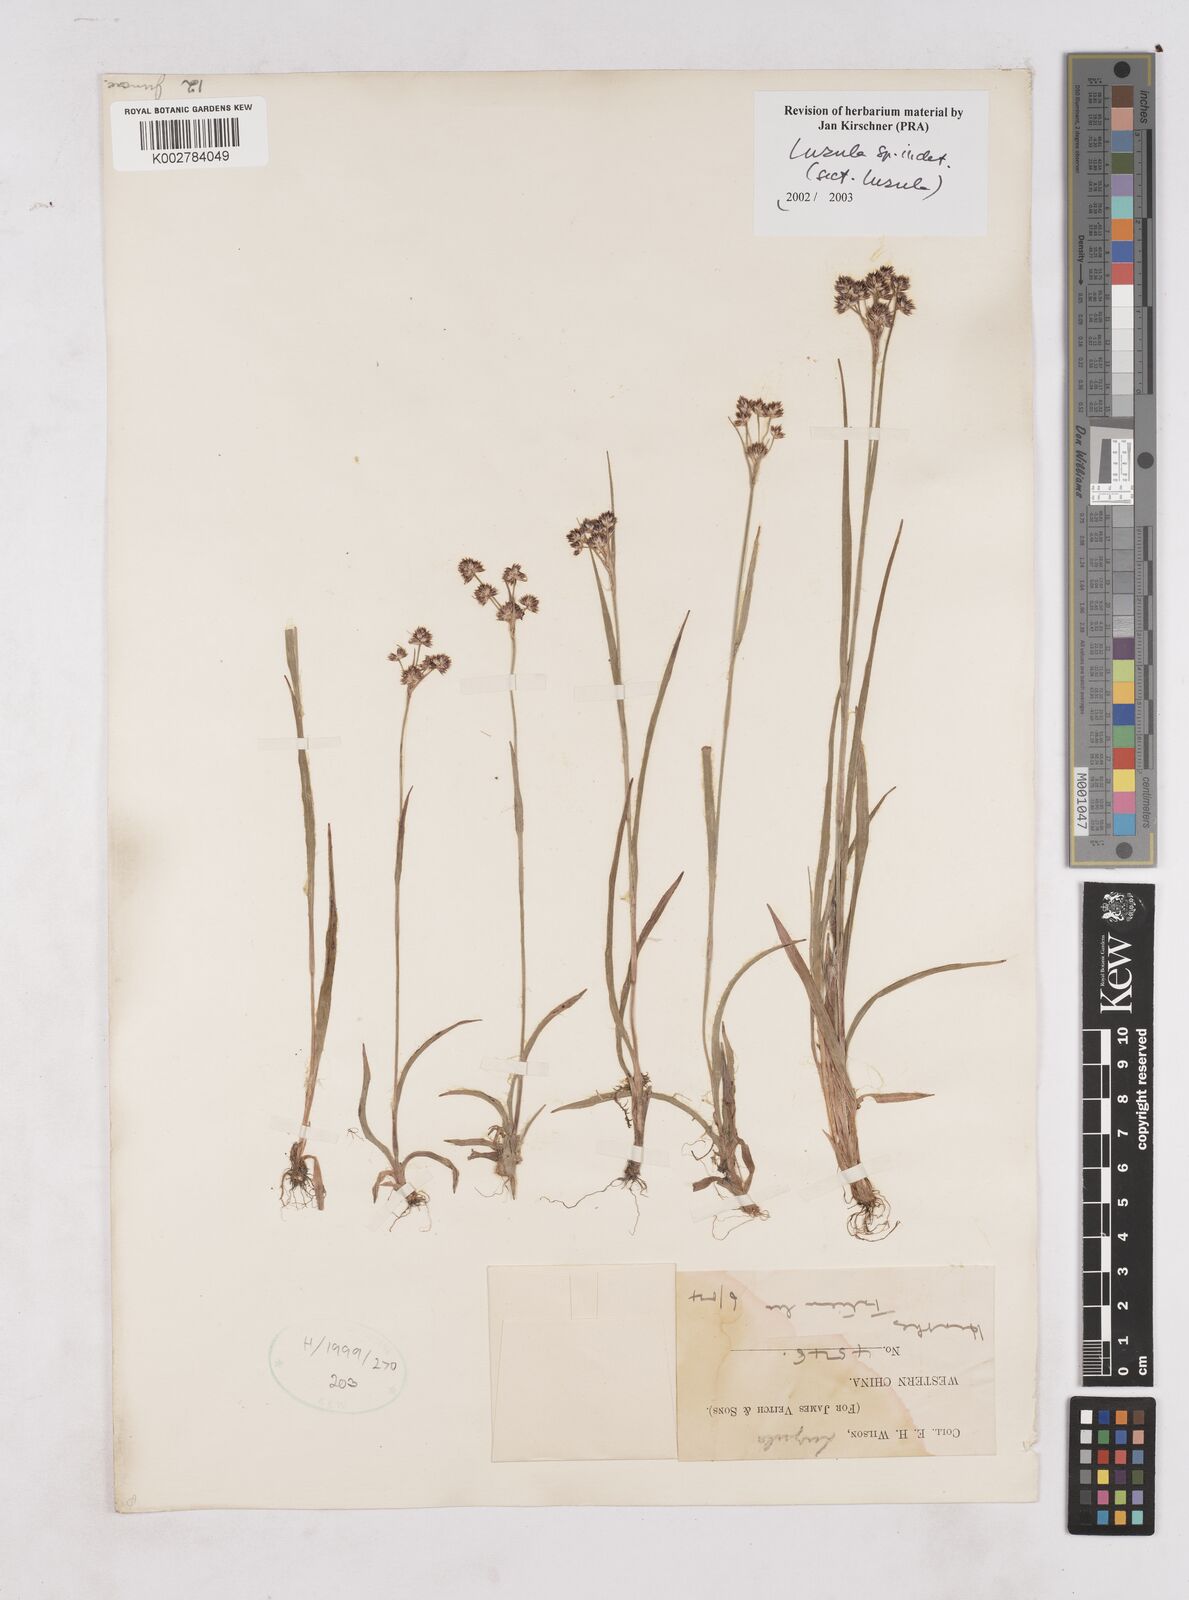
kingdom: Plantae
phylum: Tracheophyta
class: Liliopsida
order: Poales
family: Juncaceae
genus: Luzula
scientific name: Luzula
